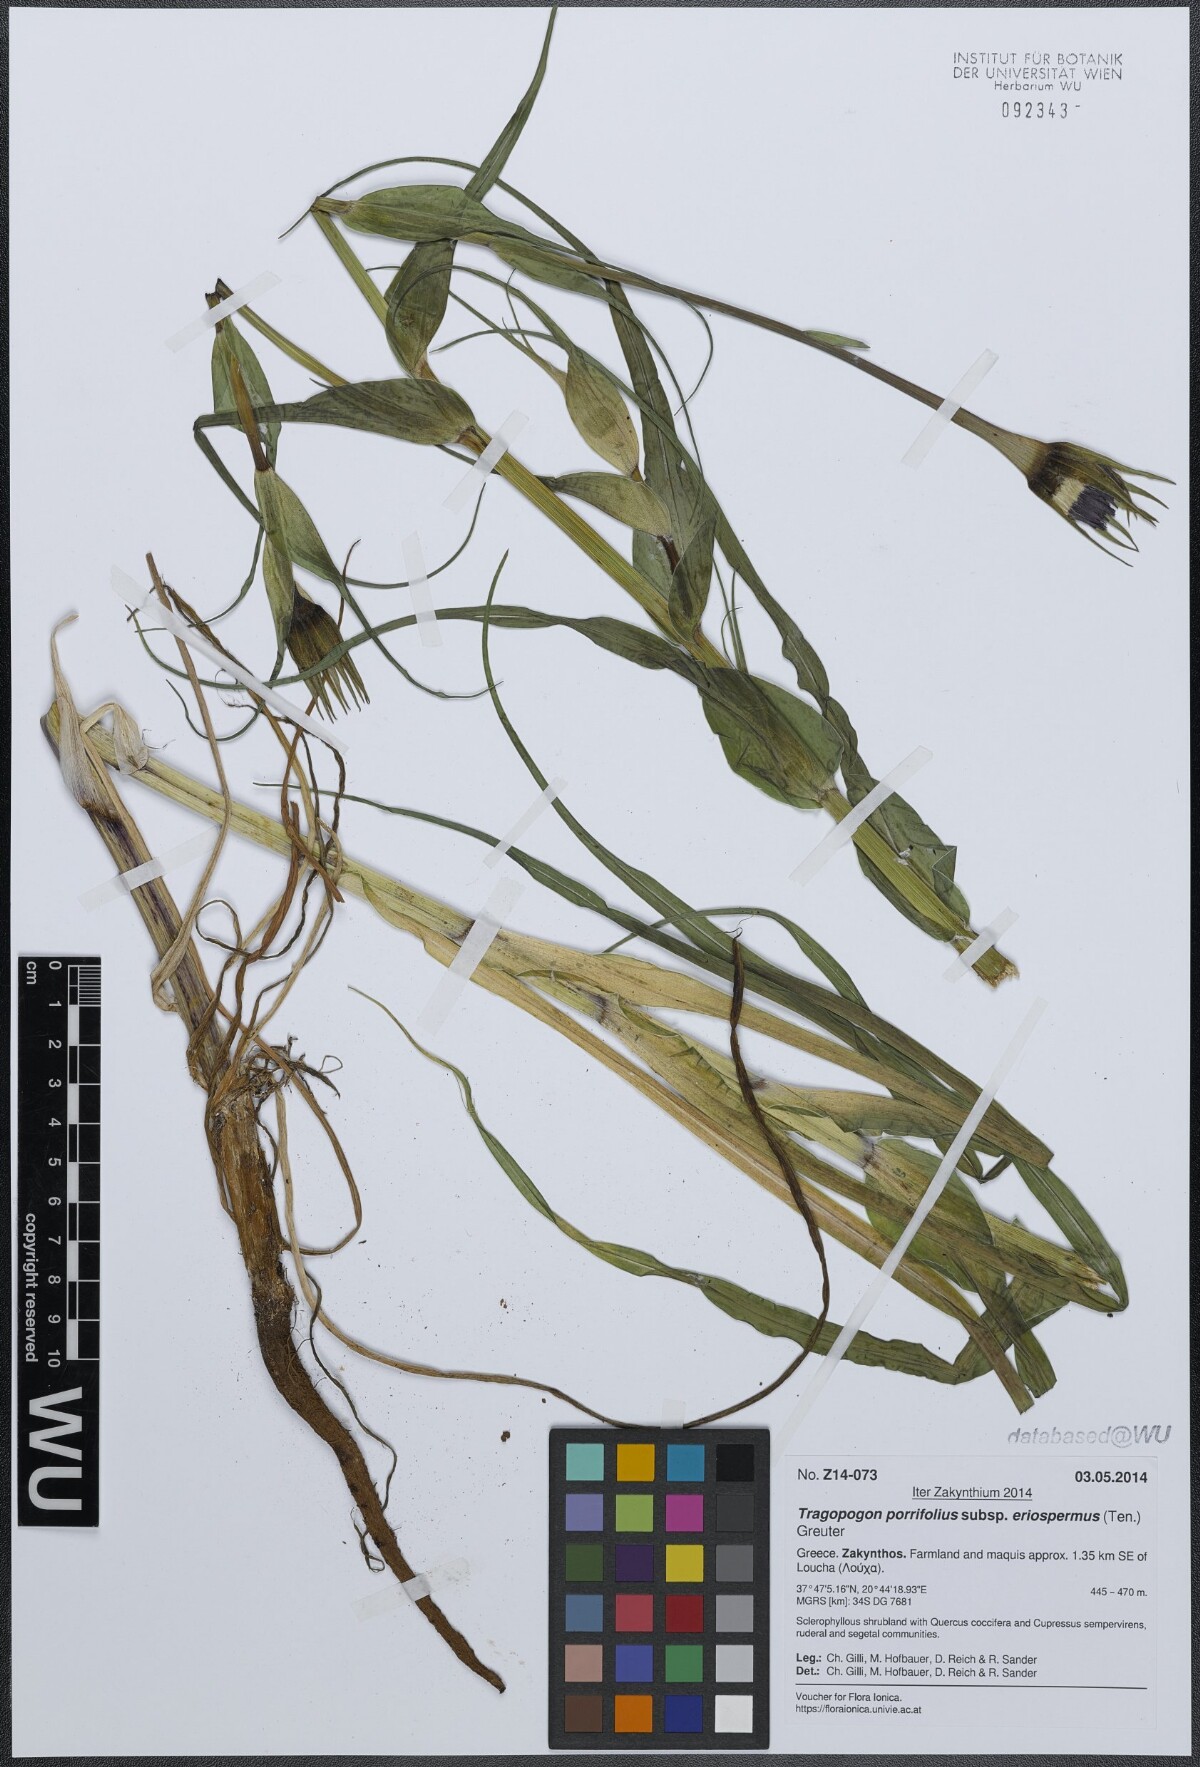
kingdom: Plantae
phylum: Tracheophyta
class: Magnoliopsida
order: Asterales
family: Asteraceae
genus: Tragopogon
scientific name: Tragopogon porrifolius
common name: Salsify
